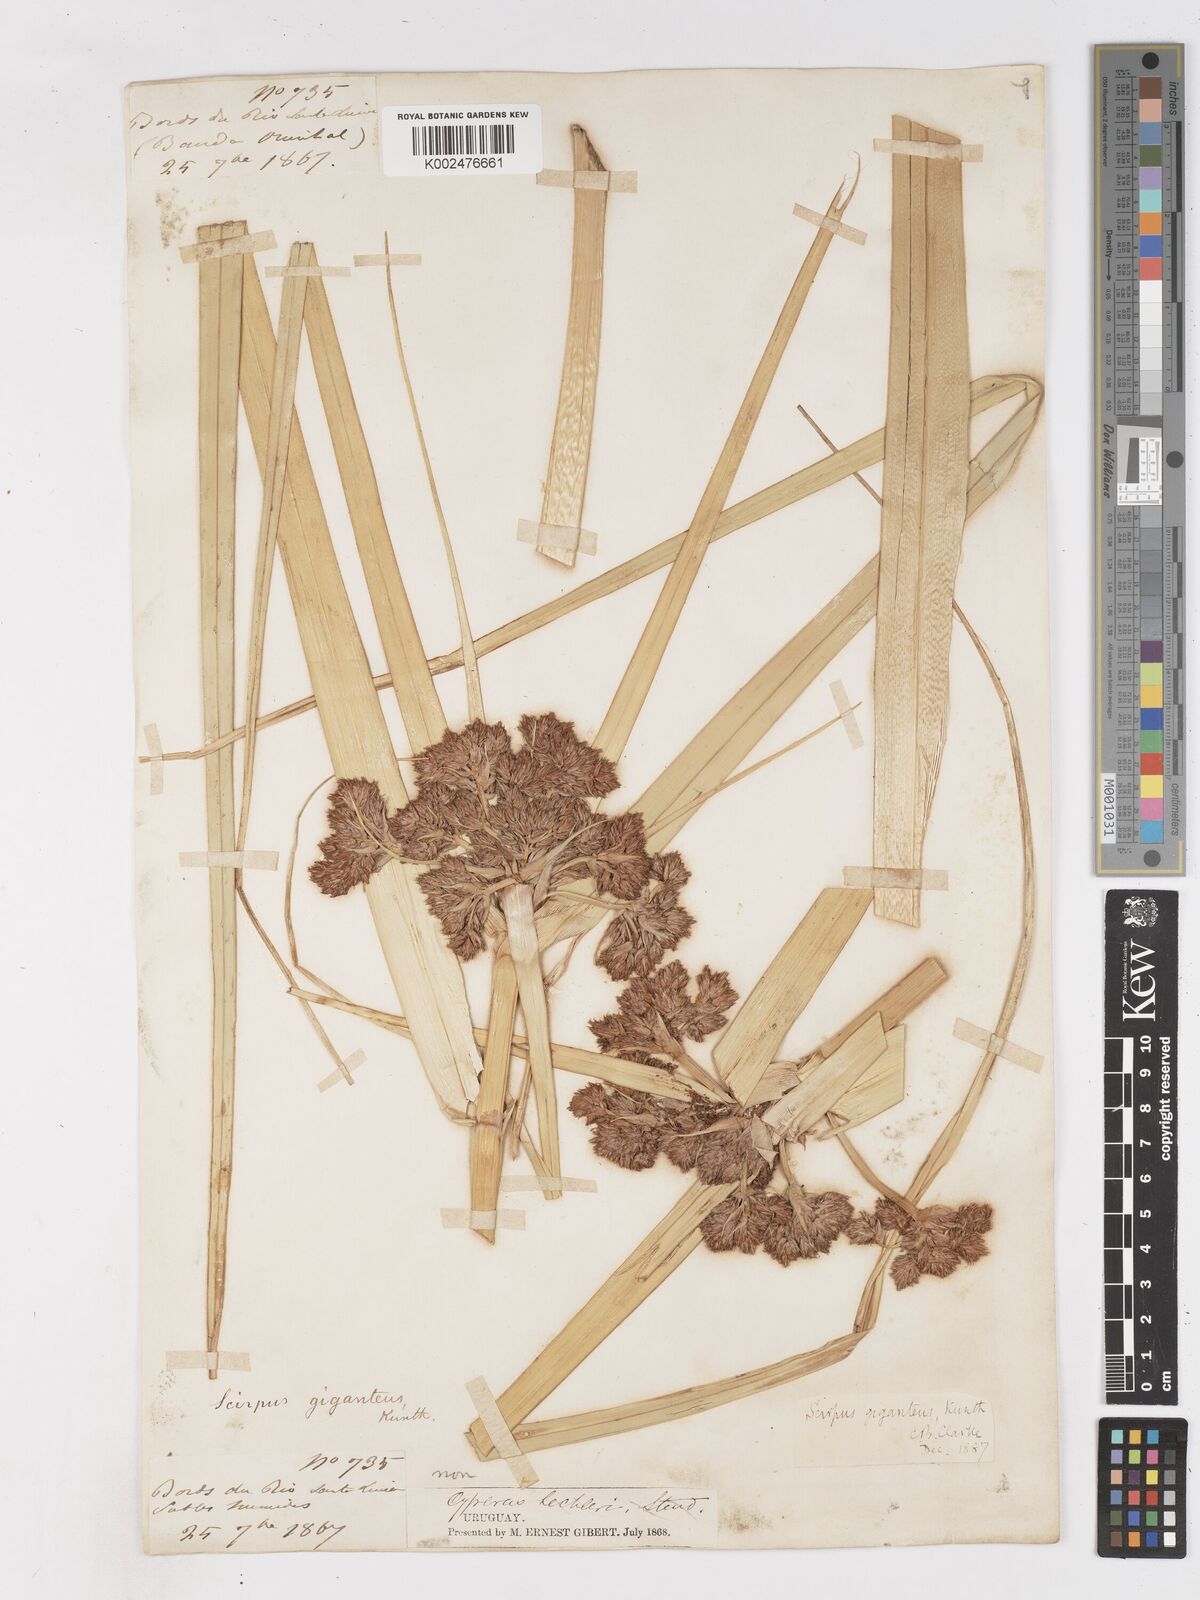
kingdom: Plantae
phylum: Tracheophyta
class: Liliopsida
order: Poales
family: Cyperaceae
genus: Cyperus
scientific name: Cyperus byssaceus
